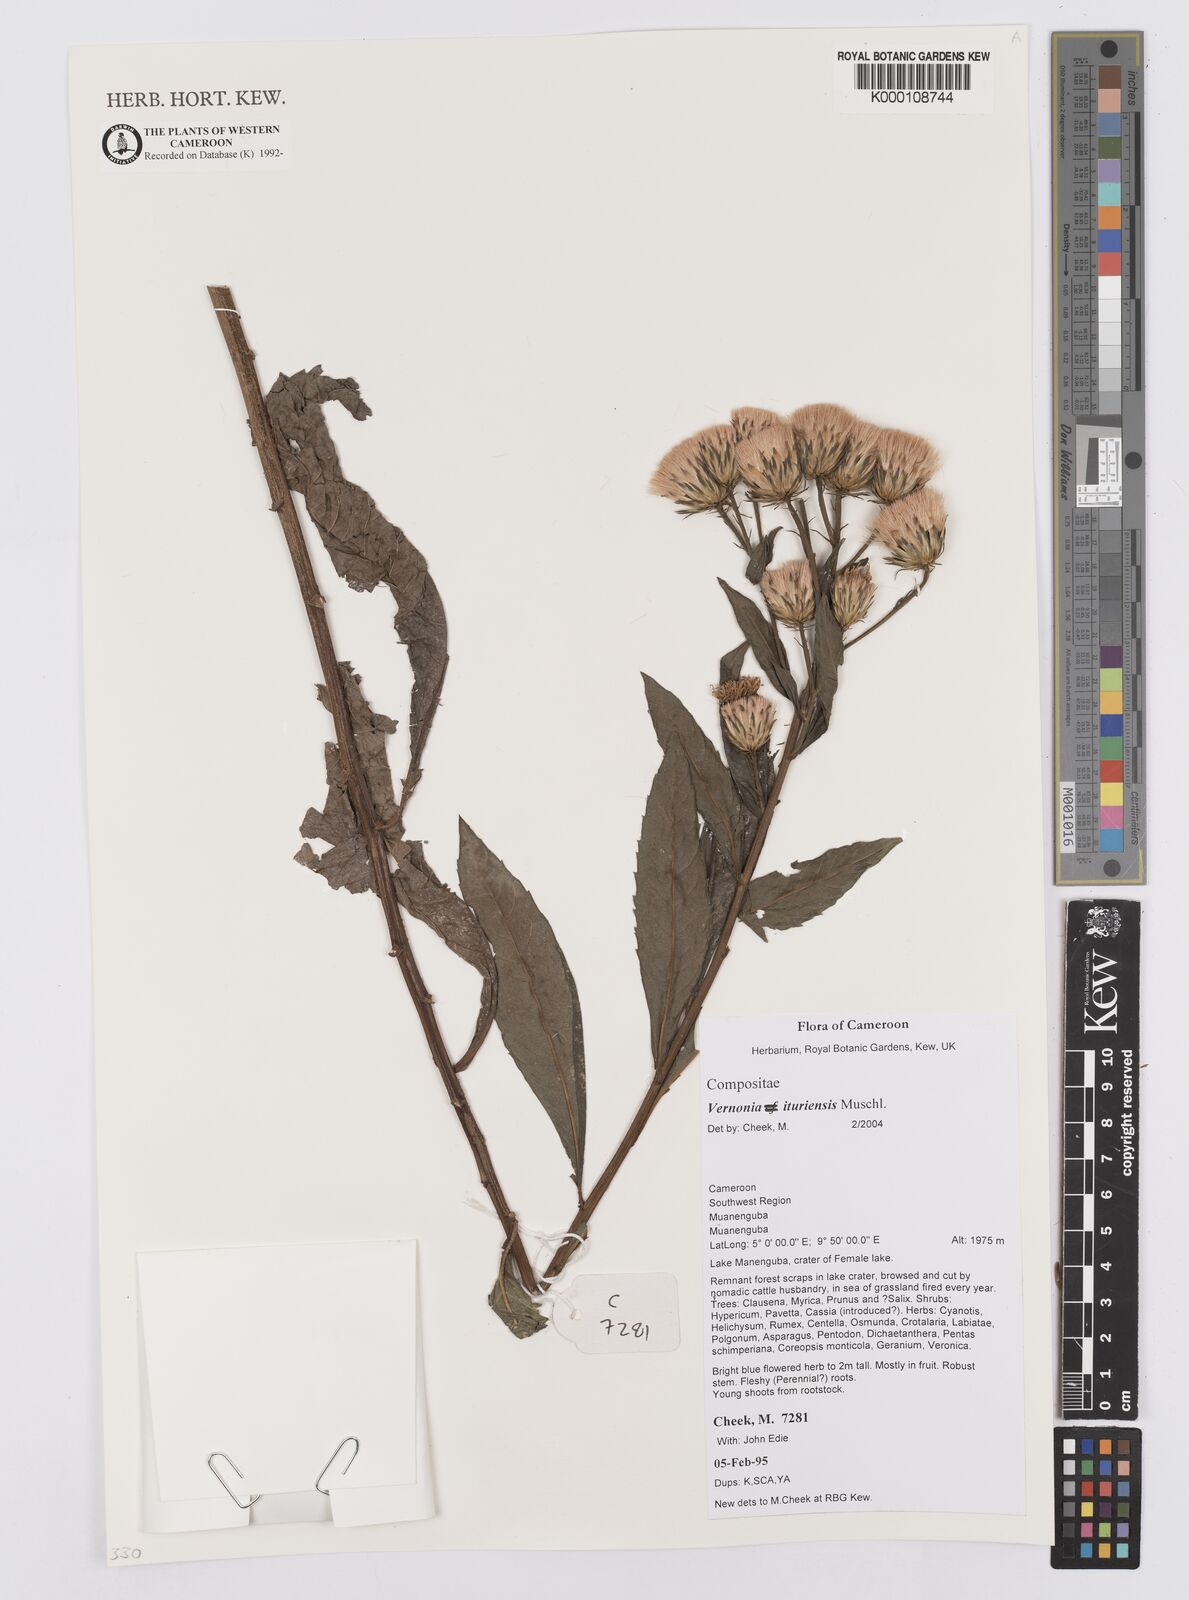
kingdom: Plantae
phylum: Tracheophyta
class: Magnoliopsida
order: Asterales
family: Asteraceae
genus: Linzia
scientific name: Linzia ituriensis
